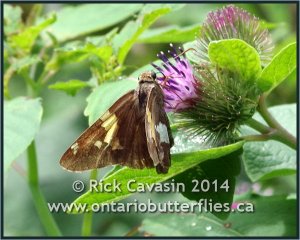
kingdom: Animalia
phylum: Arthropoda
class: Insecta
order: Lepidoptera
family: Hesperiidae
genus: Epargyreus
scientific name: Epargyreus clarus
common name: Silver-spotted Skipper
